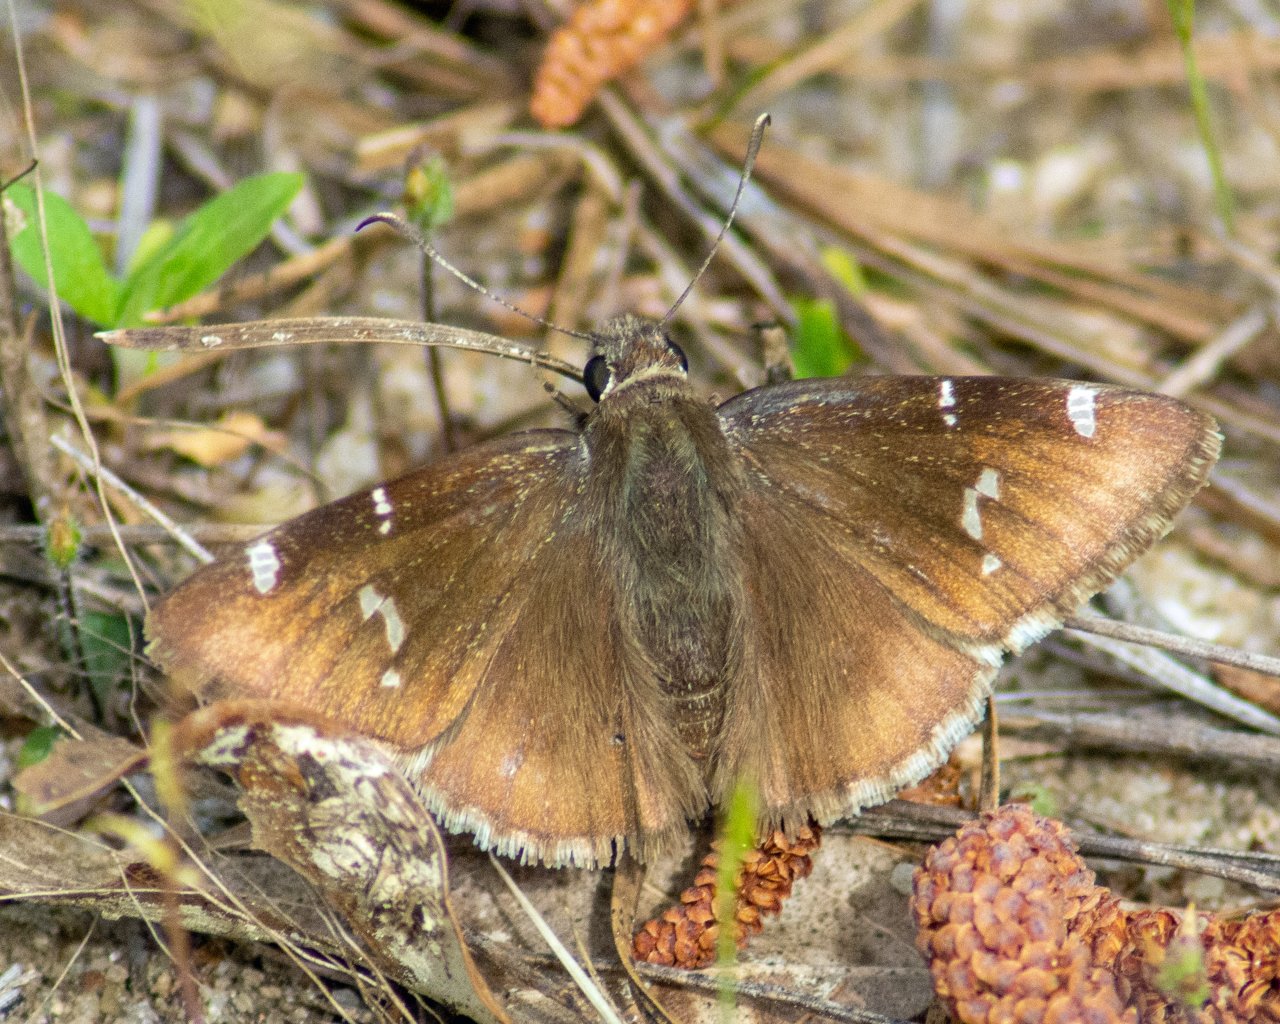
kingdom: Animalia
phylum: Arthropoda
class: Insecta
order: Lepidoptera
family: Hesperiidae
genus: Autochton
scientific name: Autochton
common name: Southern Cloudywing
